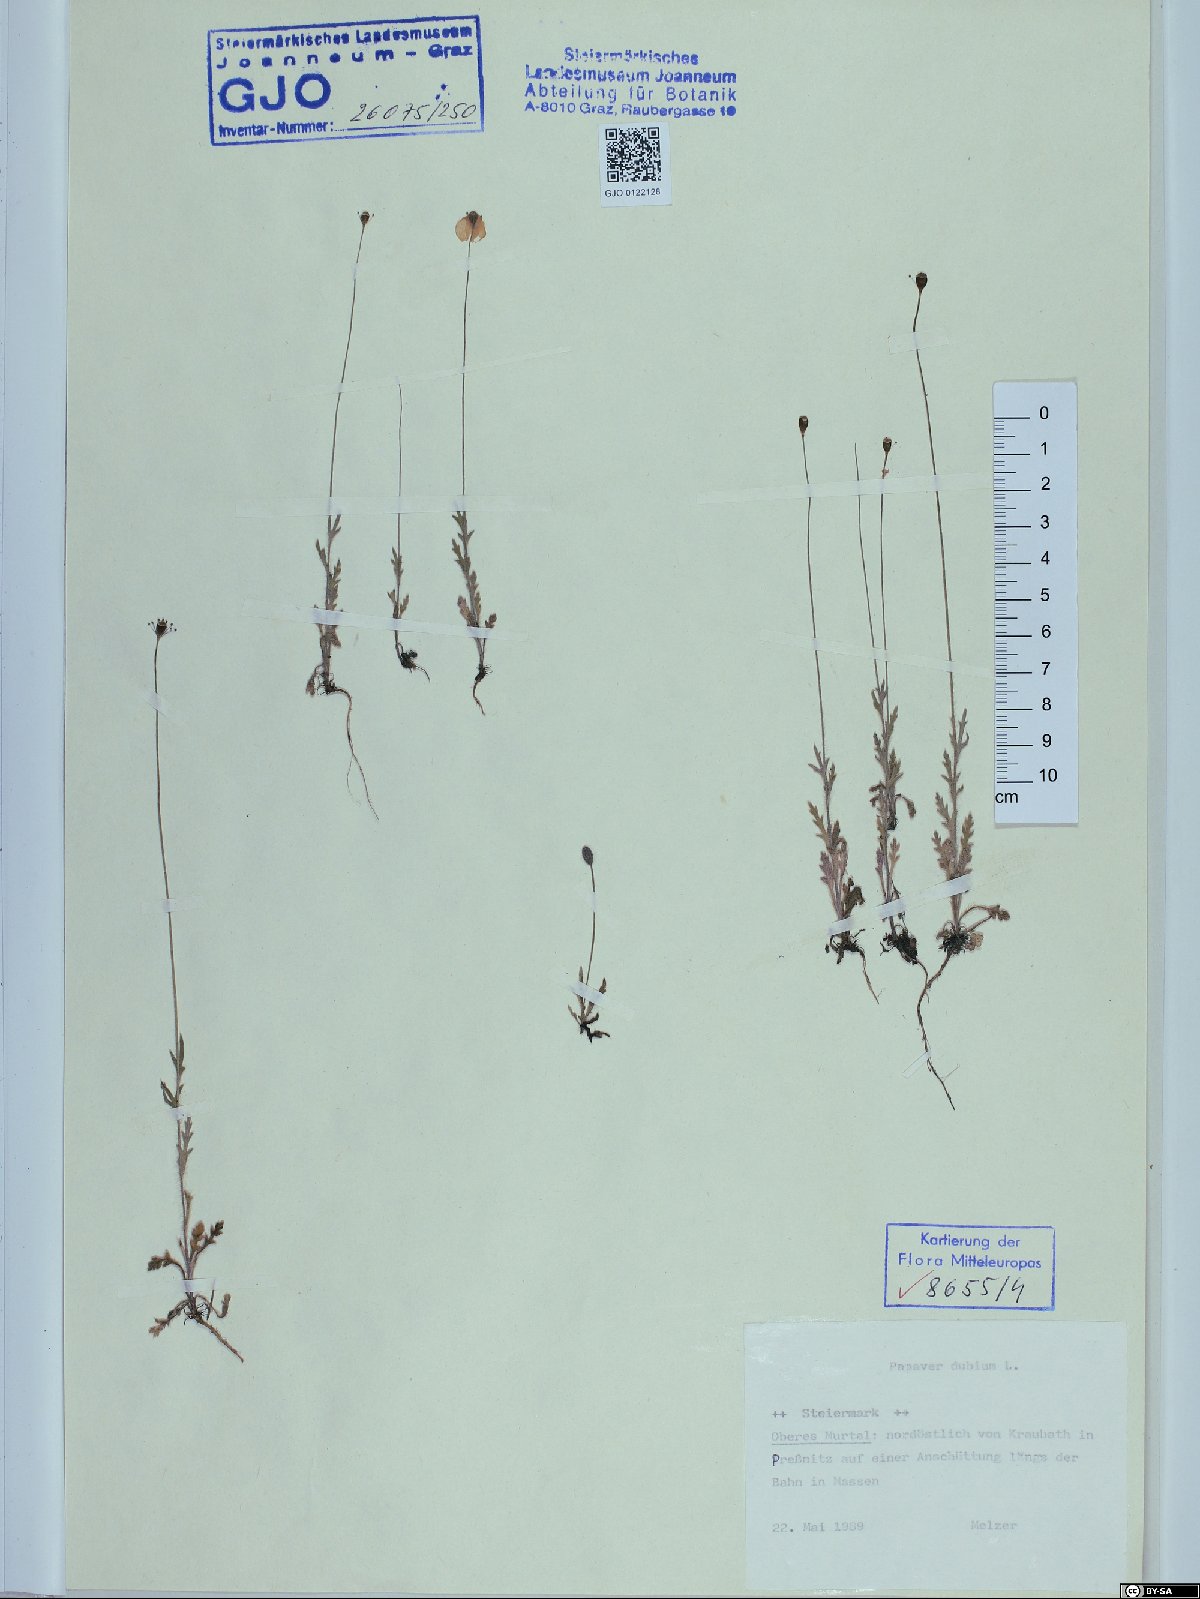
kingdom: Plantae
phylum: Tracheophyta
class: Magnoliopsida
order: Ranunculales
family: Papaveraceae
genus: Papaver
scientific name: Papaver dubium
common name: Long-headed poppy
